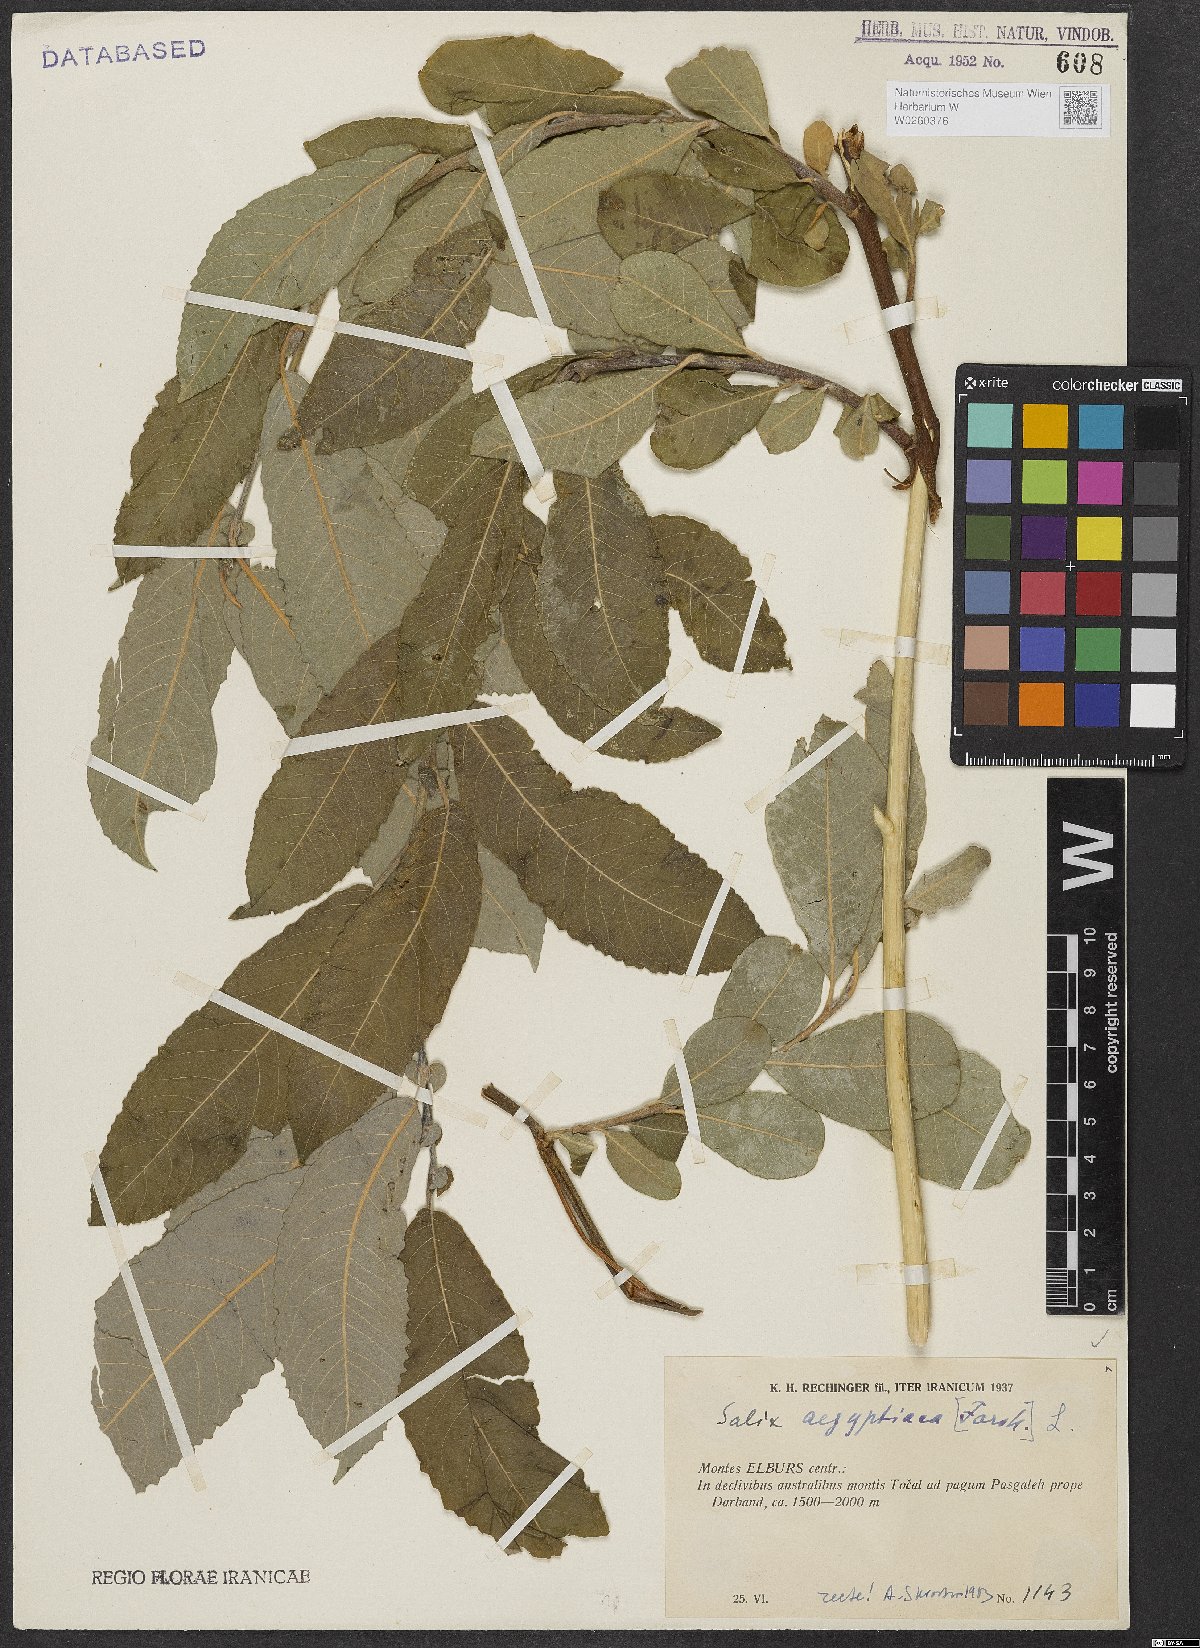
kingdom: Plantae
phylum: Tracheophyta
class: Magnoliopsida
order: Malpighiales
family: Salicaceae
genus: Salix
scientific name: Salix aegyptiaca
